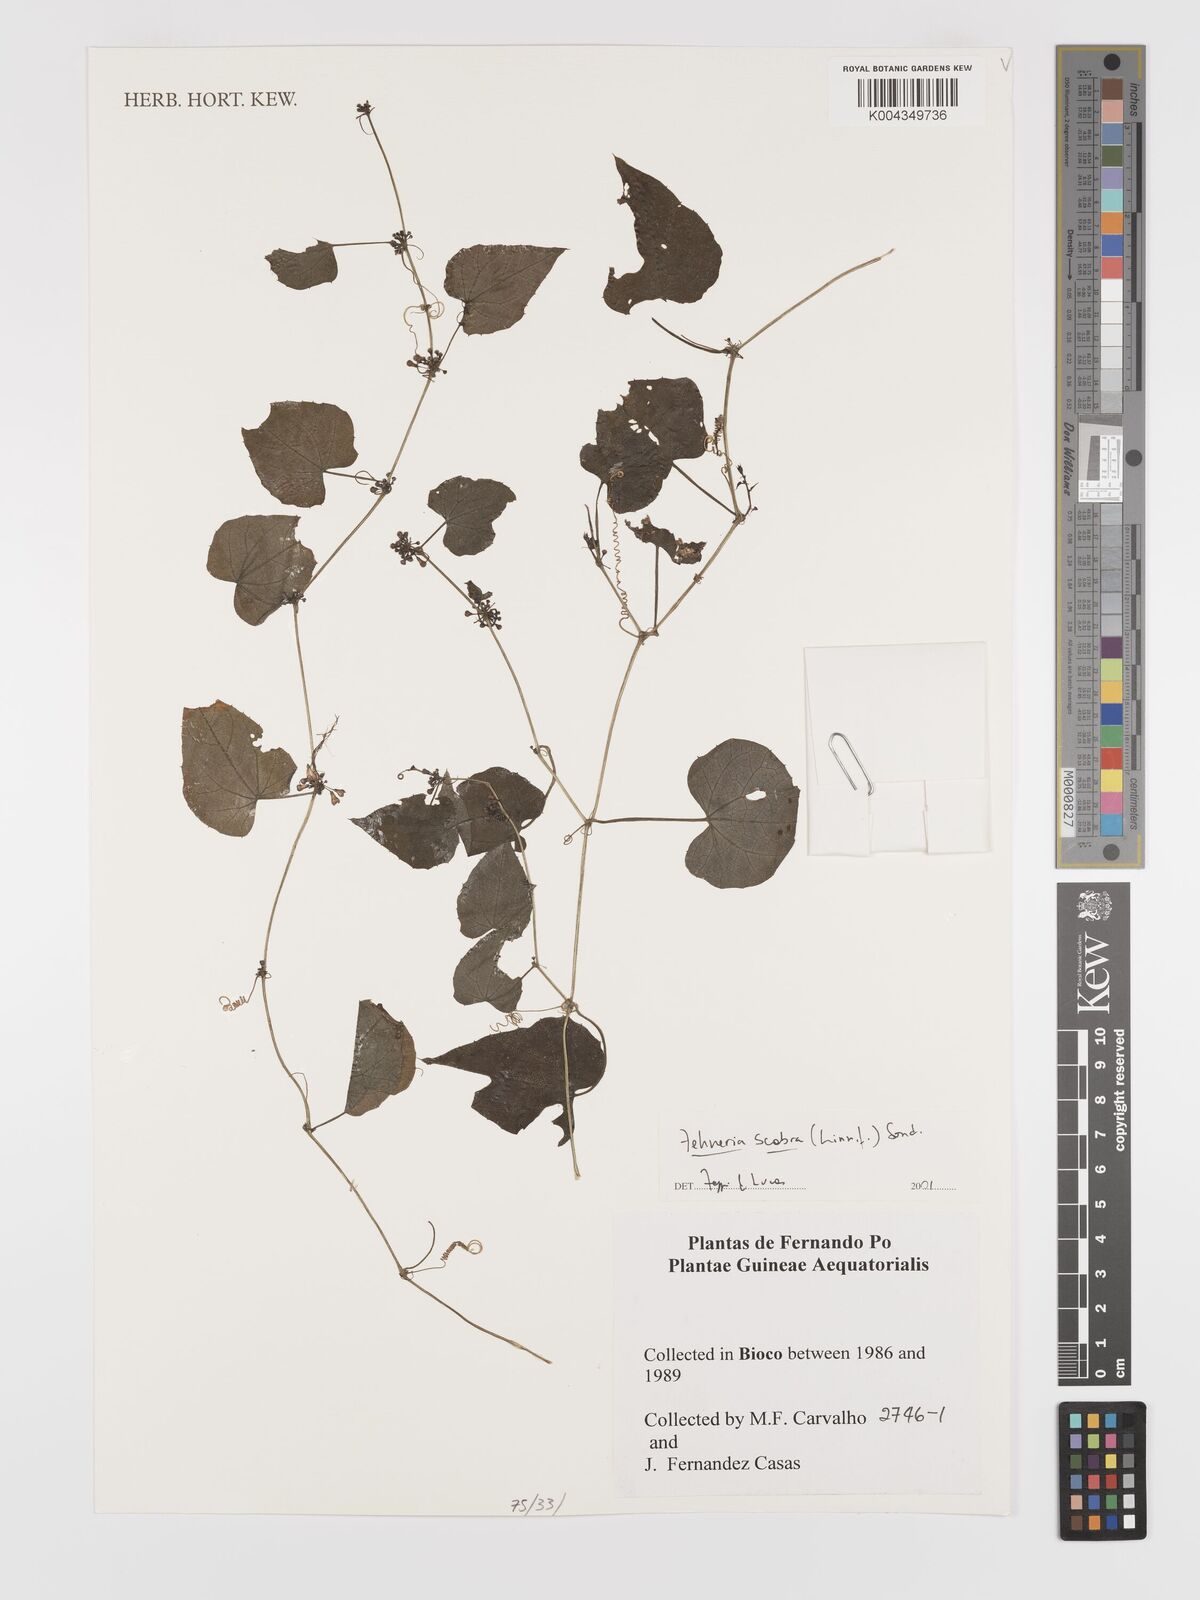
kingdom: Plantae
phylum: Tracheophyta
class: Magnoliopsida
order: Cucurbitales
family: Cucurbitaceae
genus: Zehneria
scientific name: Zehneria scabra
